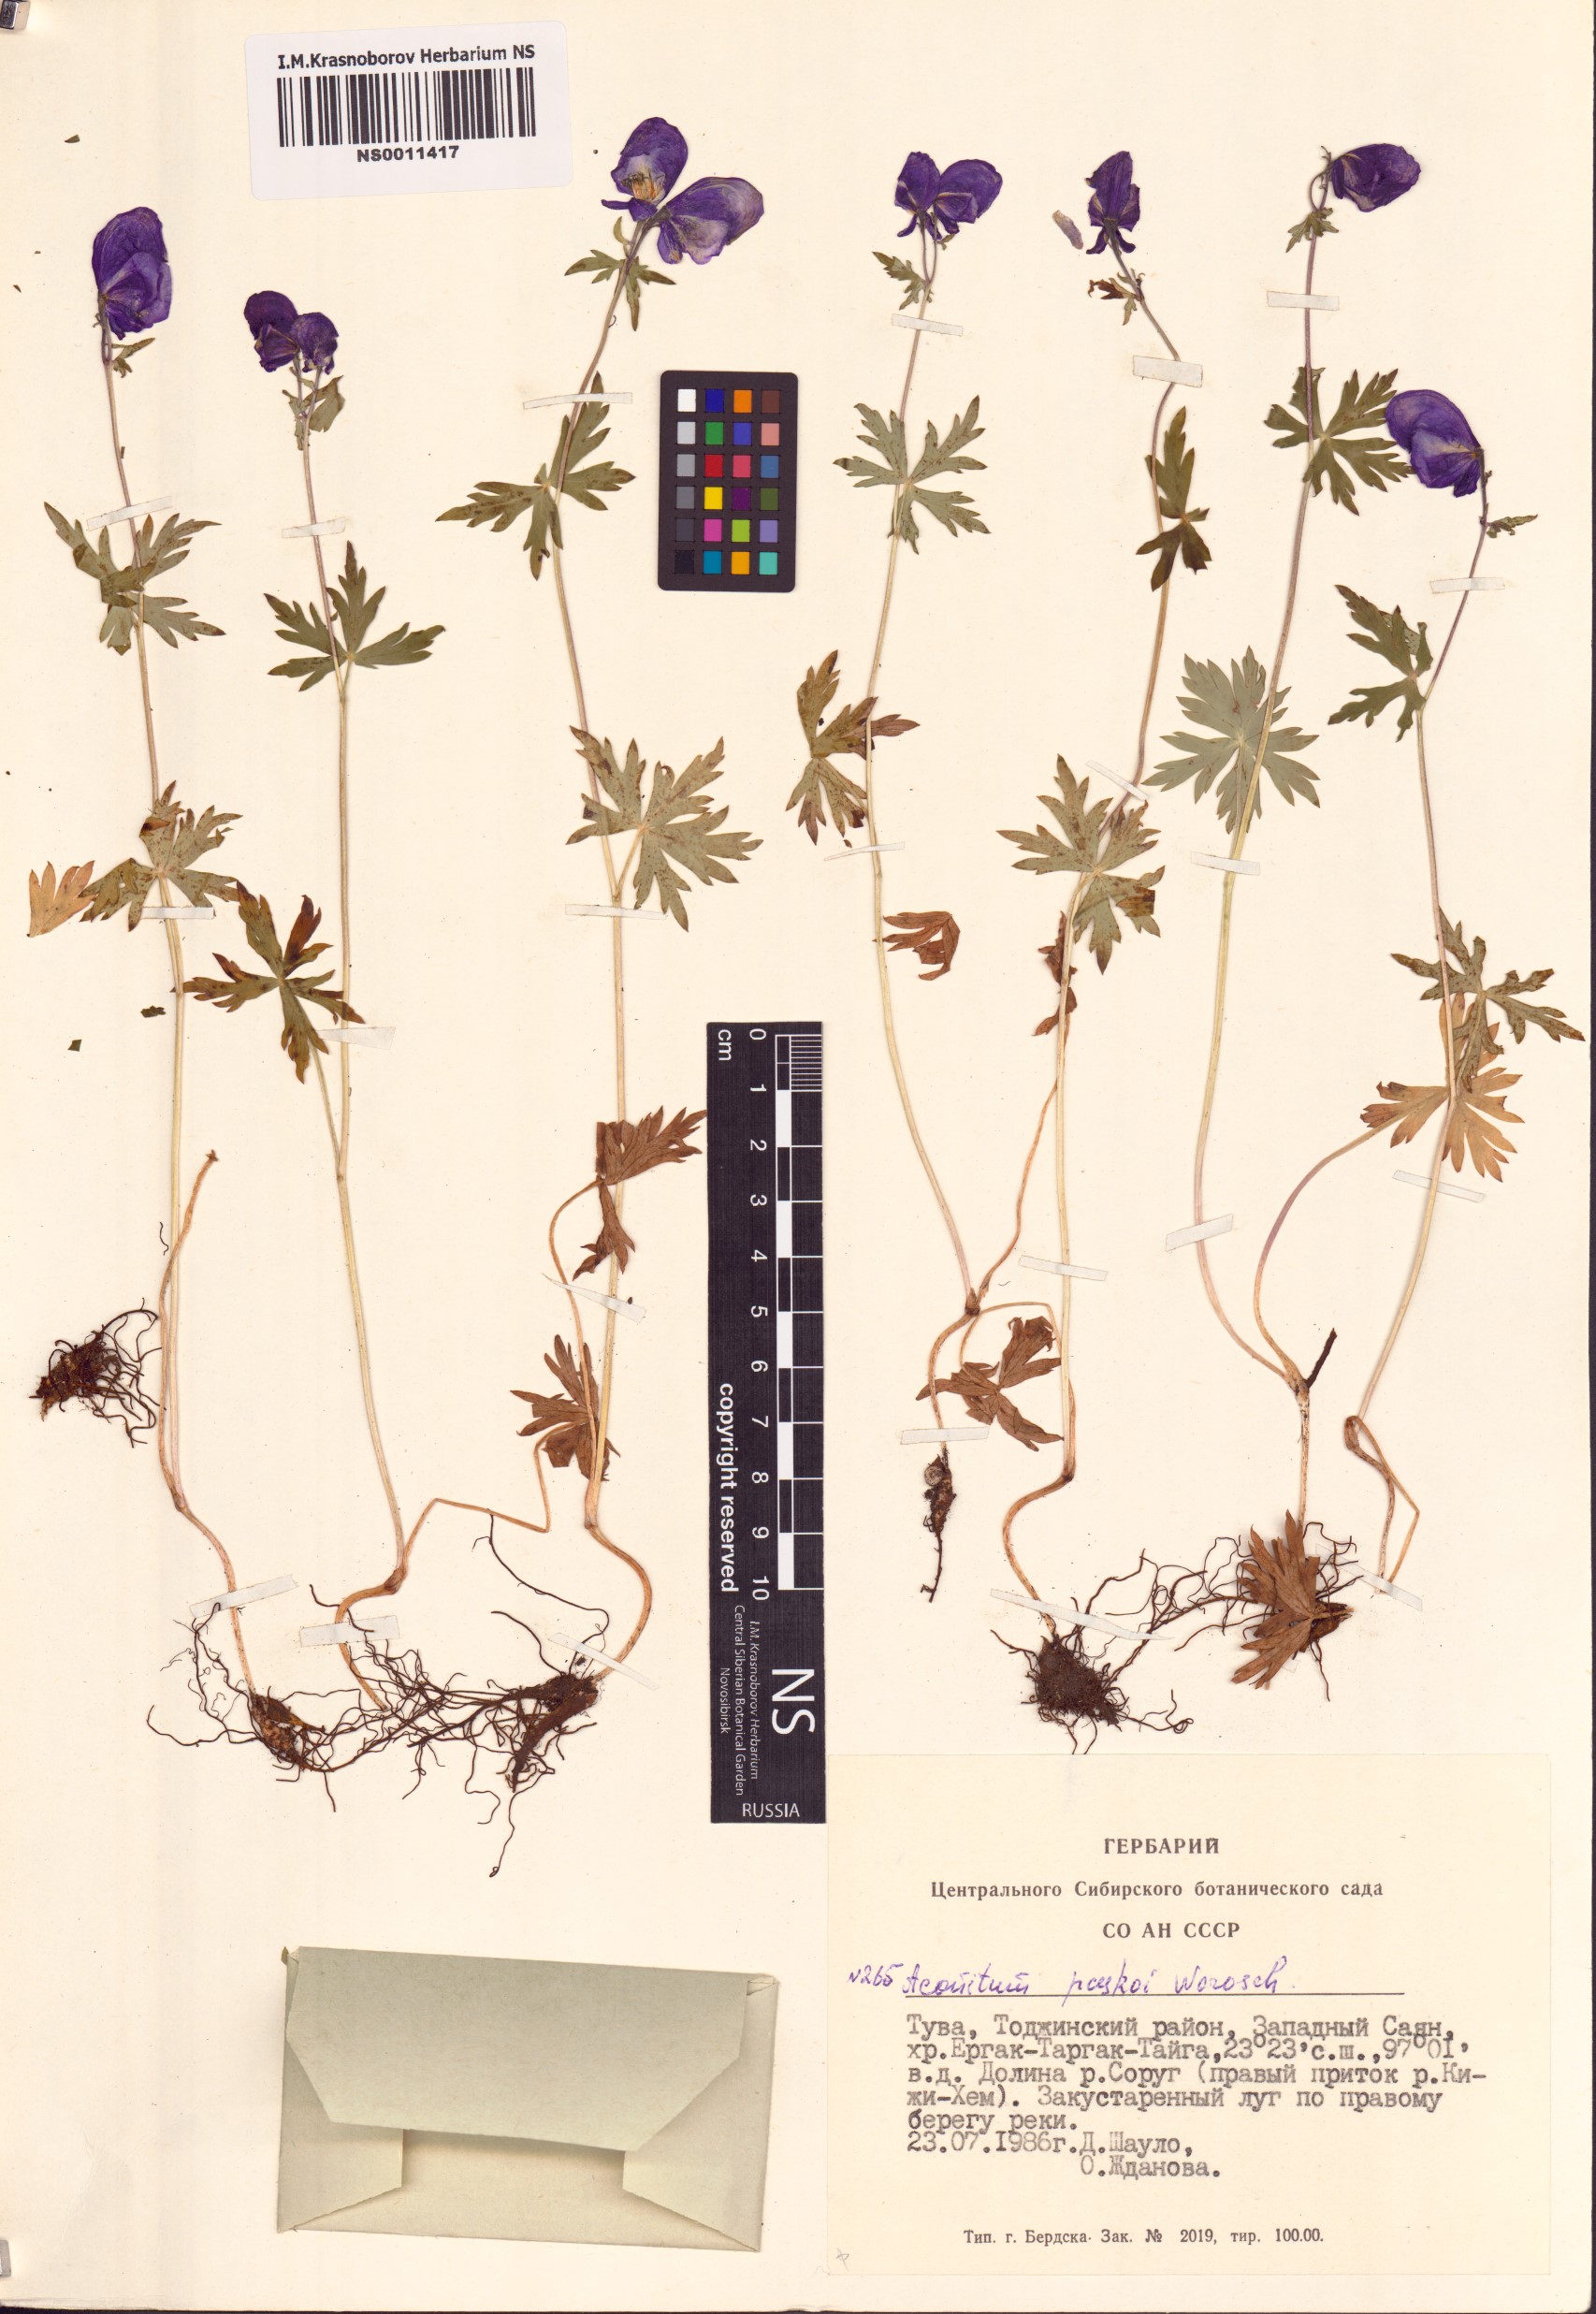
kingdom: Plantae
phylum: Tracheophyta
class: Magnoliopsida
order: Ranunculales
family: Ranunculaceae
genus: Aconitum
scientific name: Aconitum pascoi
